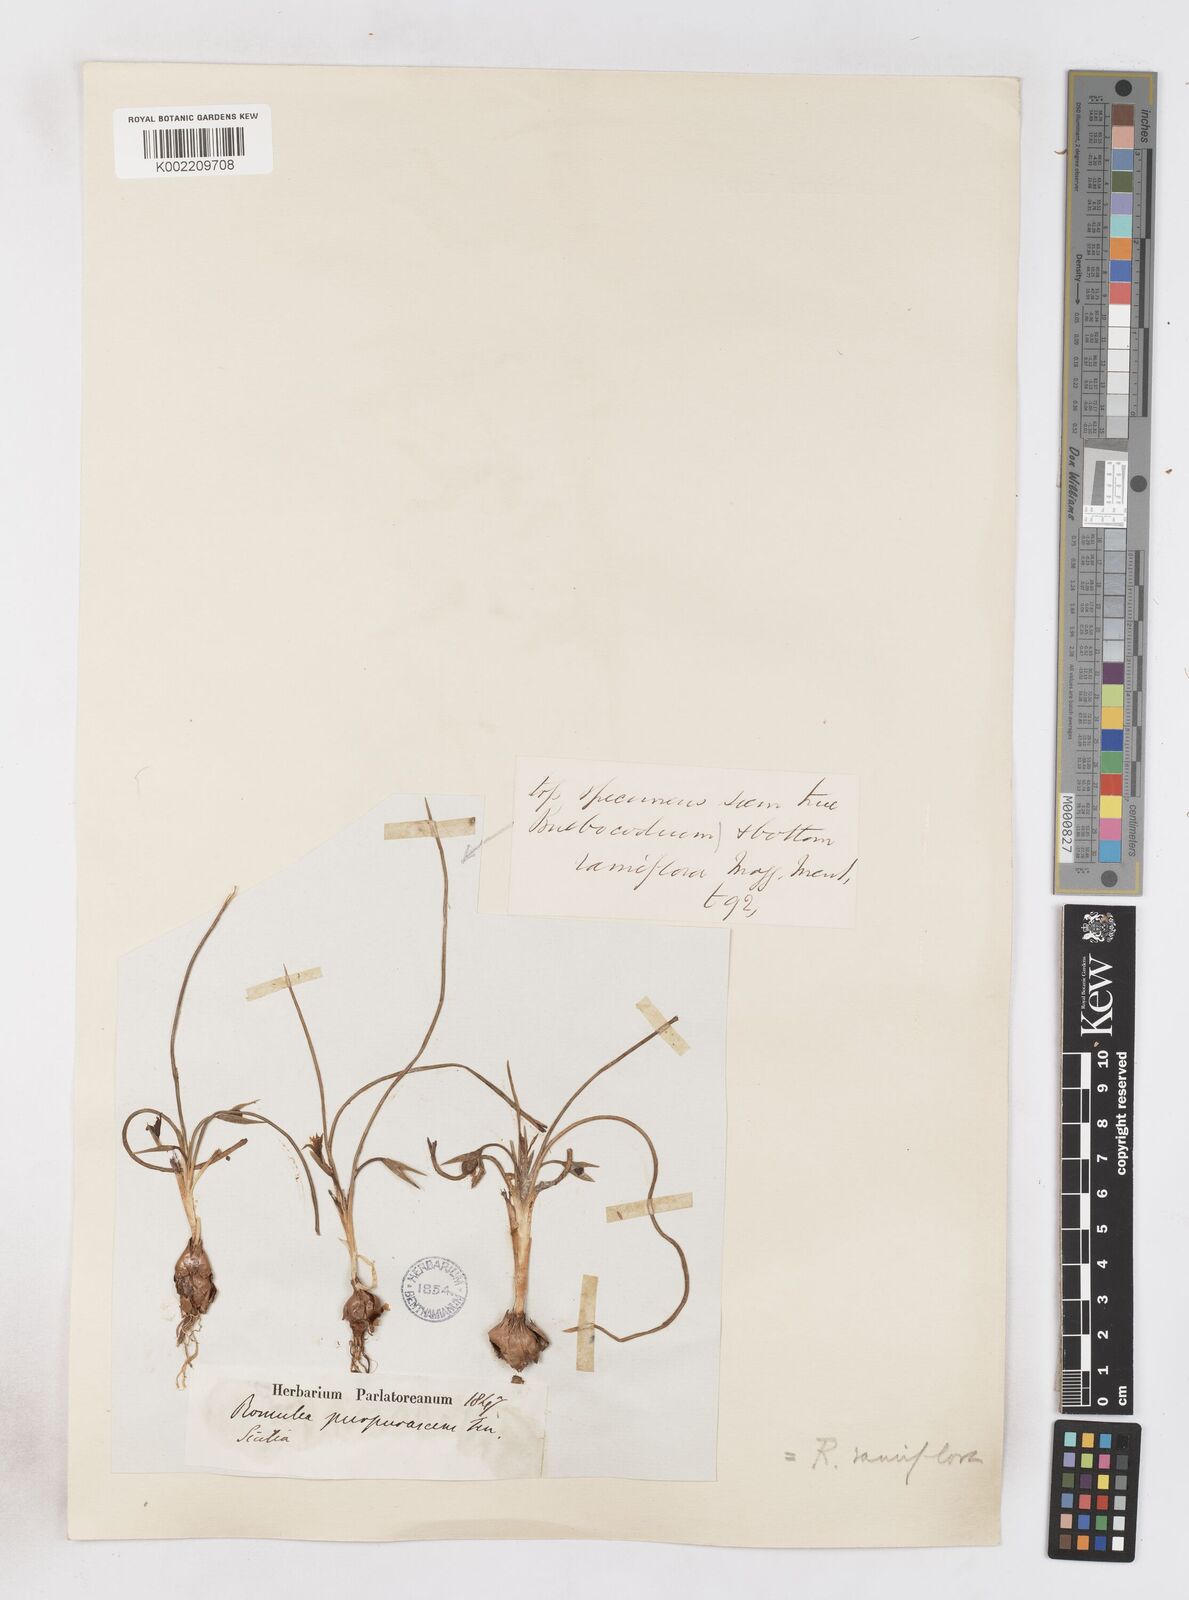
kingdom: Plantae
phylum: Tracheophyta
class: Liliopsida
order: Asparagales
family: Iridaceae
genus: Romulea
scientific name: Romulea ramiflora
